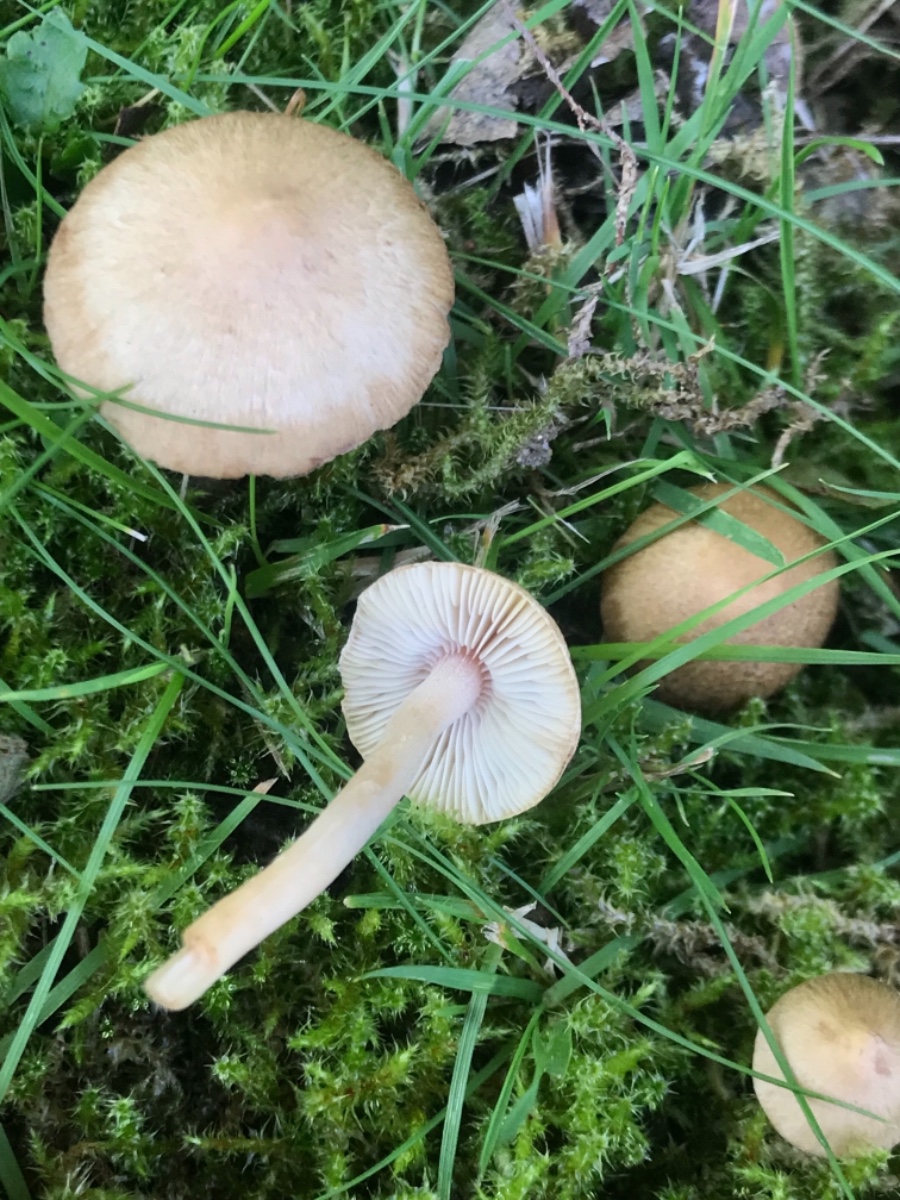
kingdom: Fungi
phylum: Basidiomycota
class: Agaricomycetes
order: Agaricales
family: Inocybaceae
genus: Inocybe
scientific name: Inocybe
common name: trævlhat
